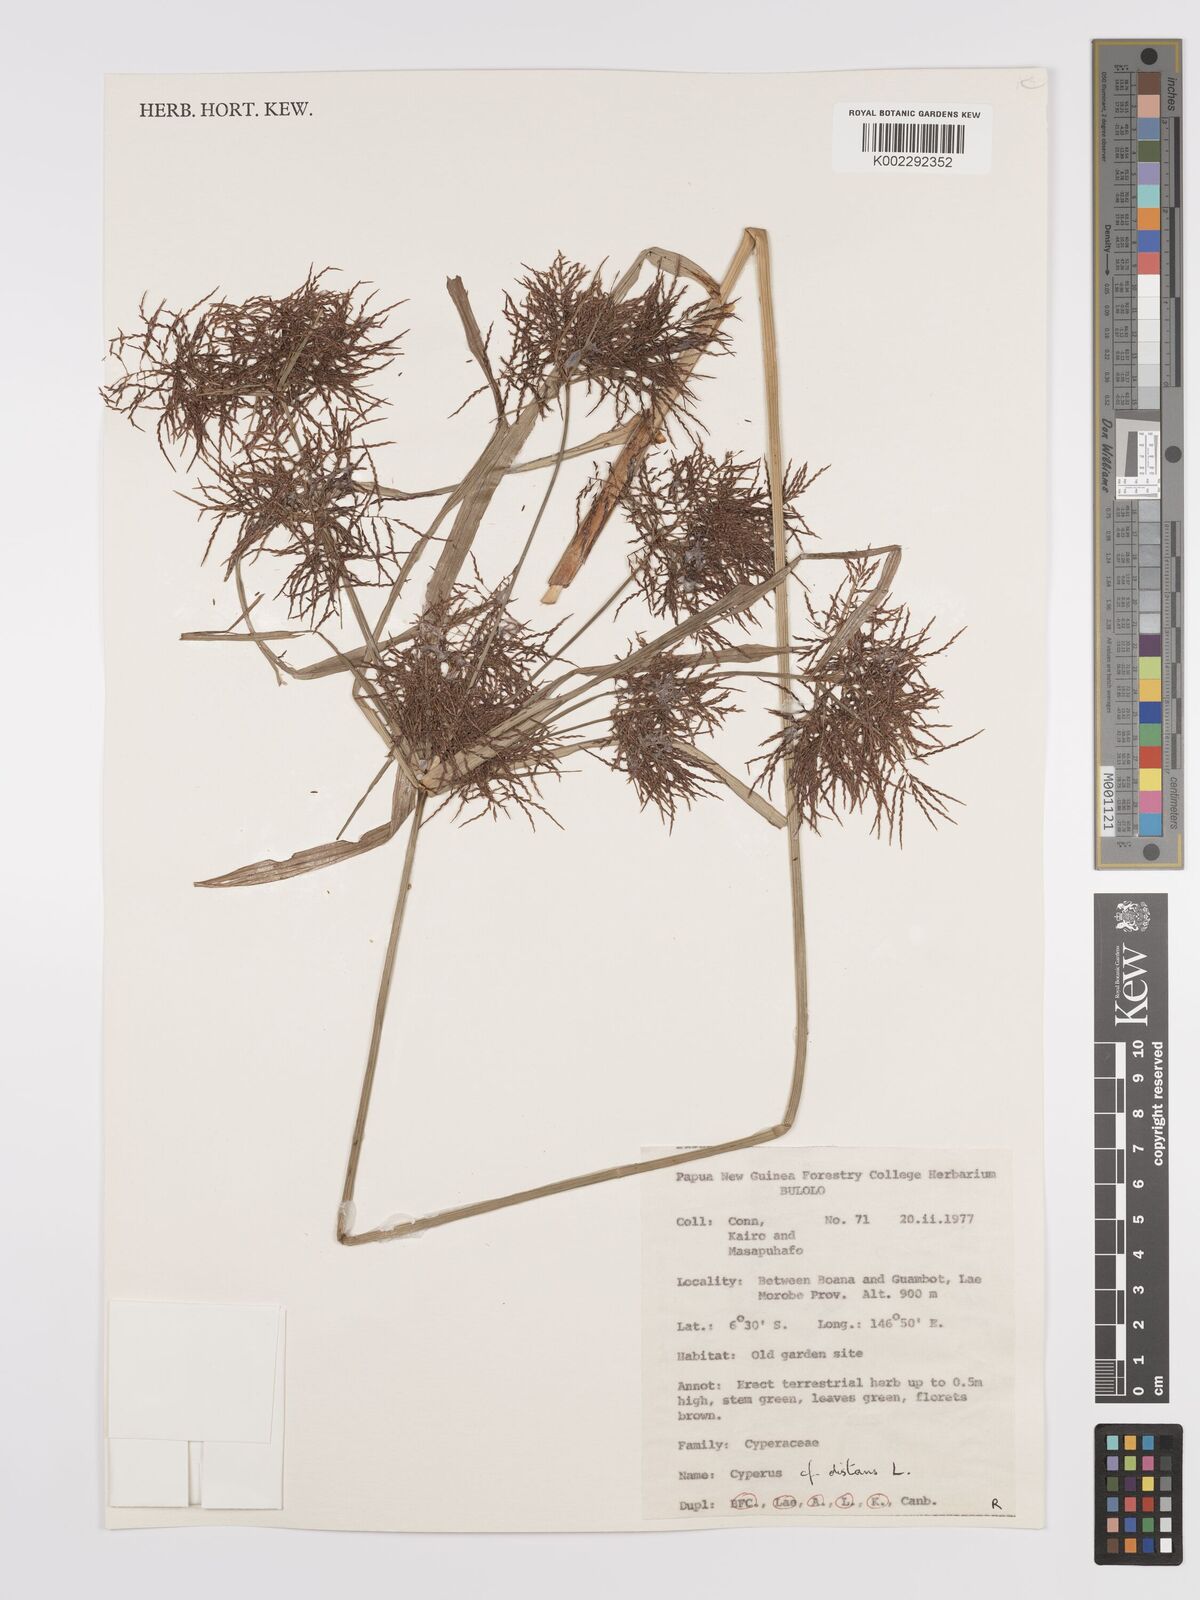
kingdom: Plantae
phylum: Tracheophyta
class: Liliopsida
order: Poales
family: Cyperaceae
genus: Cyperus
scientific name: Cyperus distans
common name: Slender cyperus
